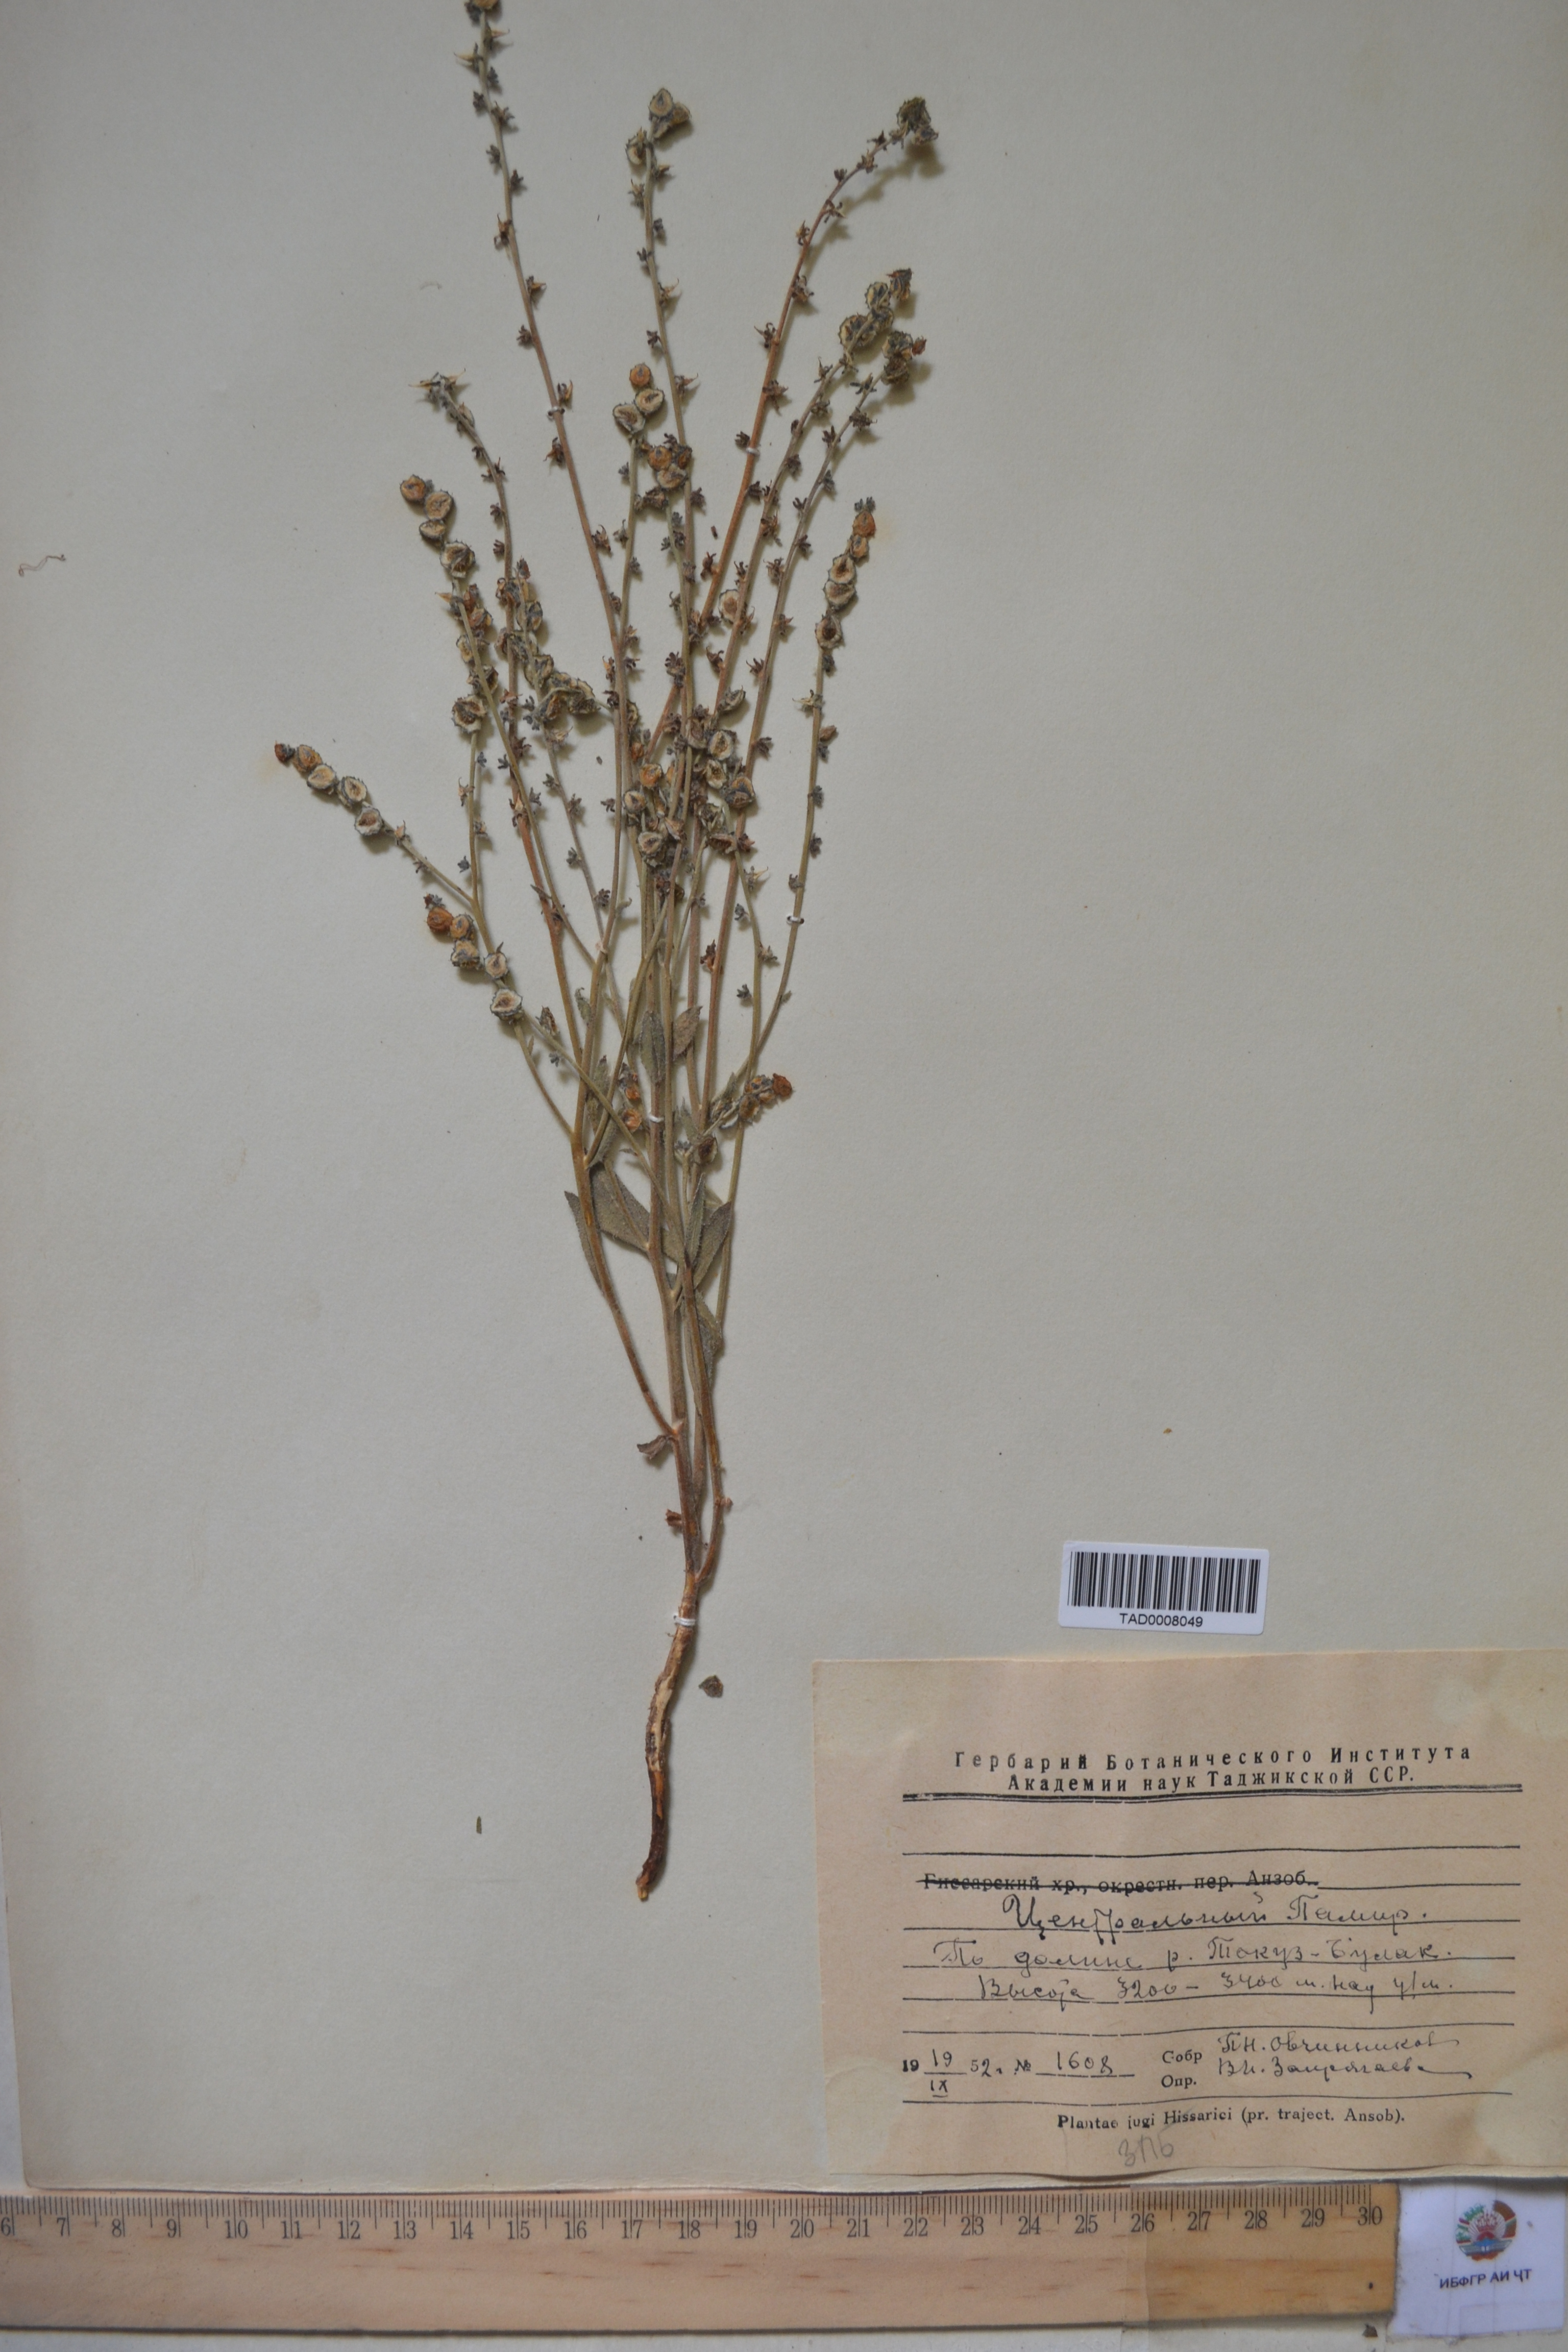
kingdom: Plantae
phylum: Tracheophyta
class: Magnoliopsida
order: Boraginales
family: Boraginaceae
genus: Paracaryum
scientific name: Paracaryum himalayense
